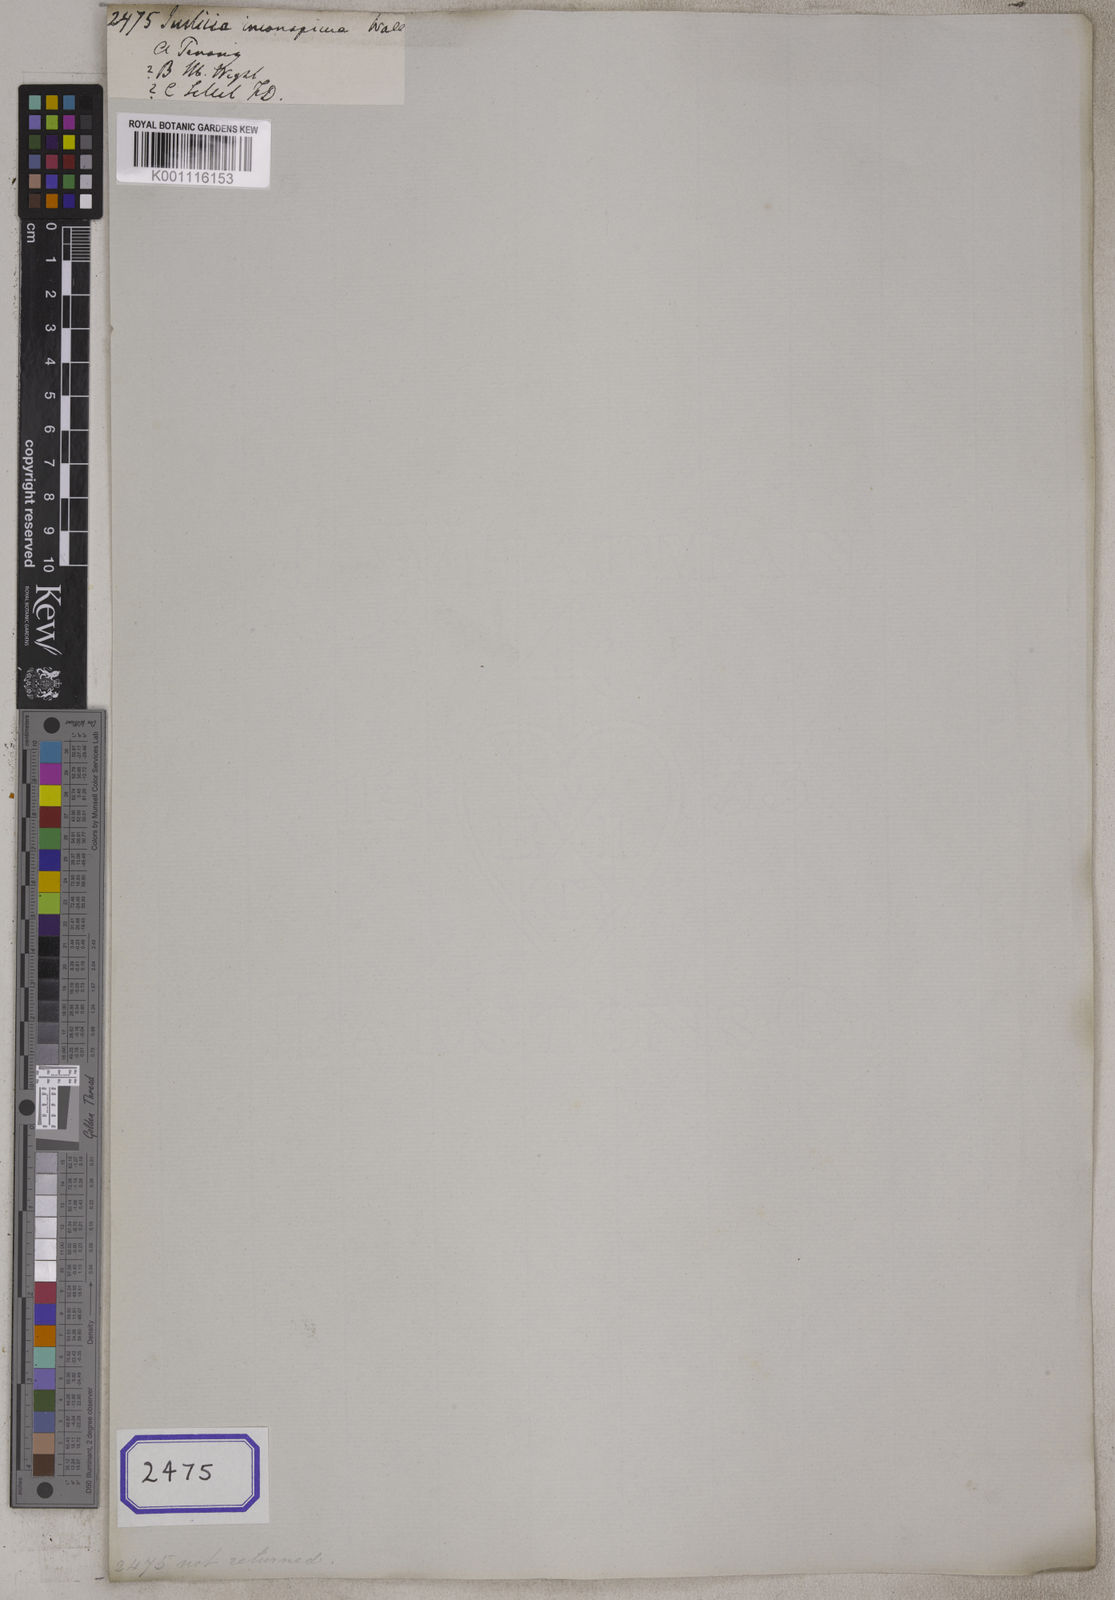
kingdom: Plantae
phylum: Tracheophyta
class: Magnoliopsida
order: Lamiales
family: Acanthaceae
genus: Justicia
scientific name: Justicia inconspicua
